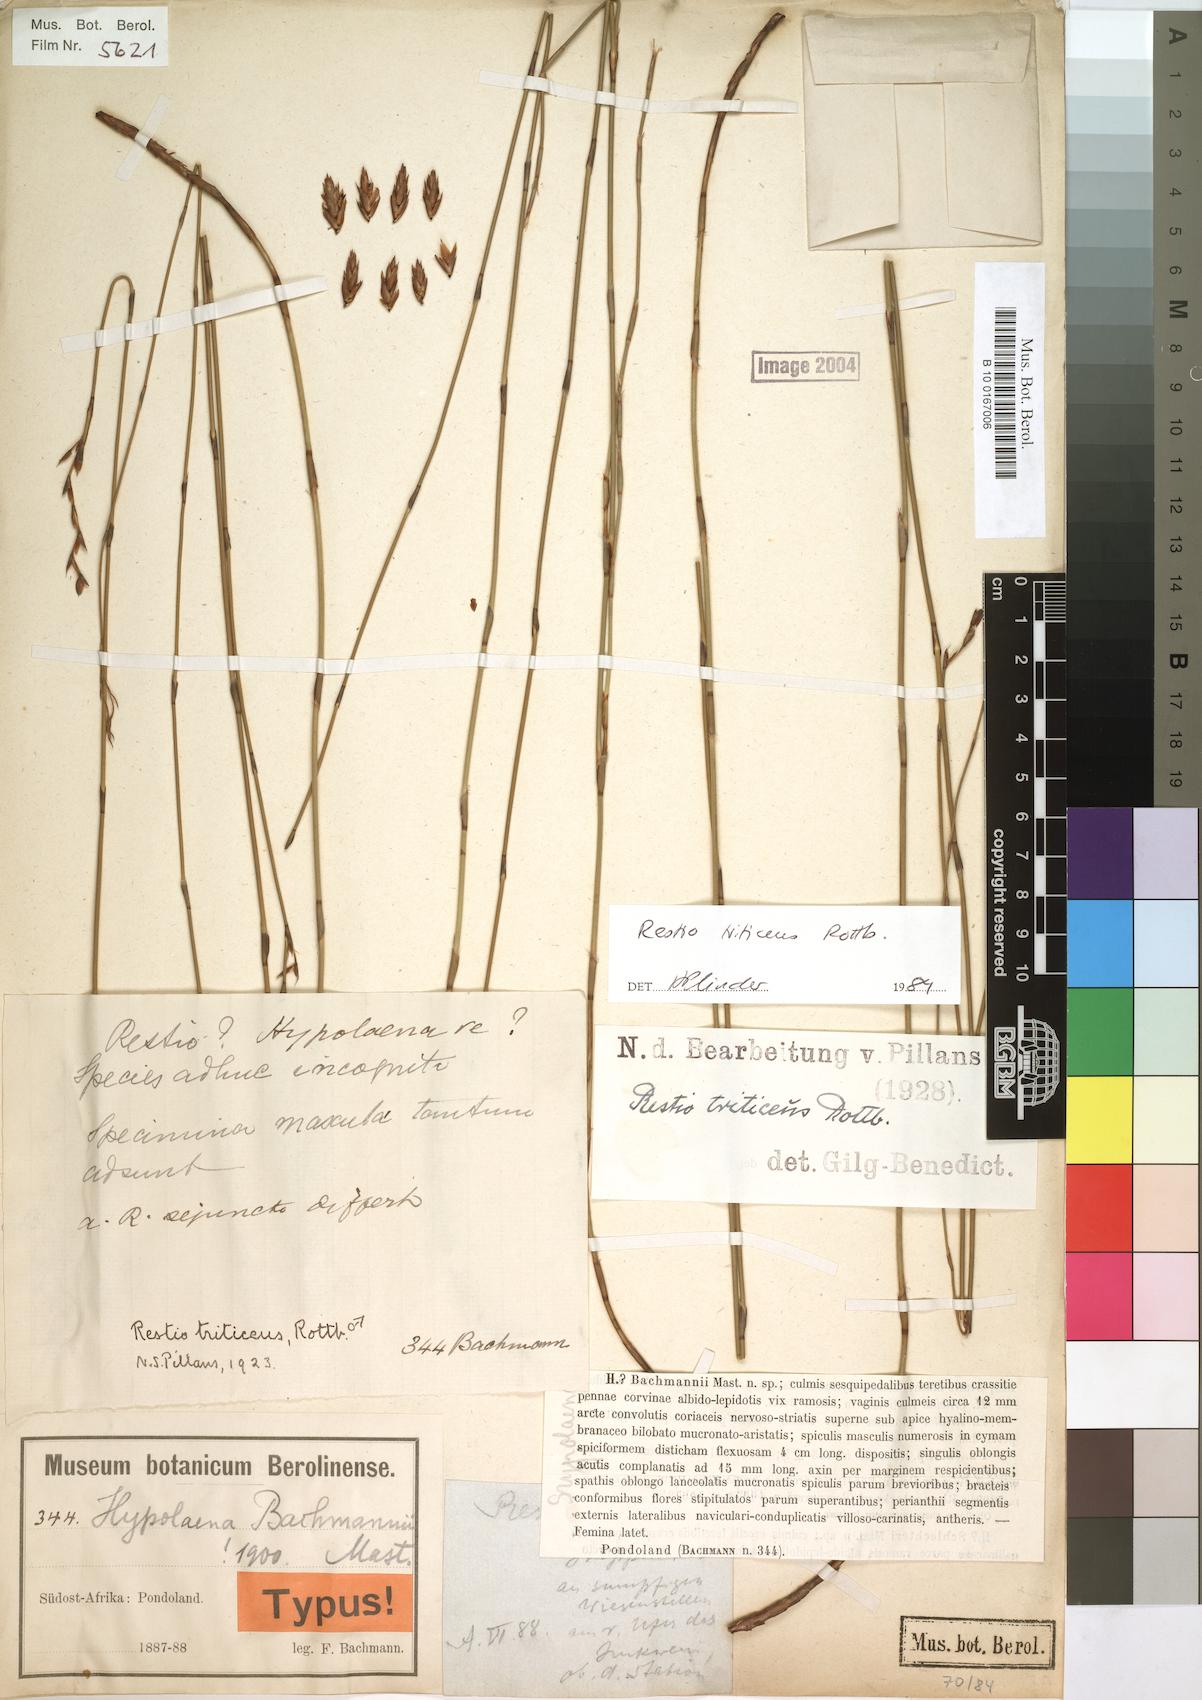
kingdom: Plantae
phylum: Tracheophyta
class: Liliopsida
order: Poales
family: Restionaceae
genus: Restio
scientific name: Restio triticeus
